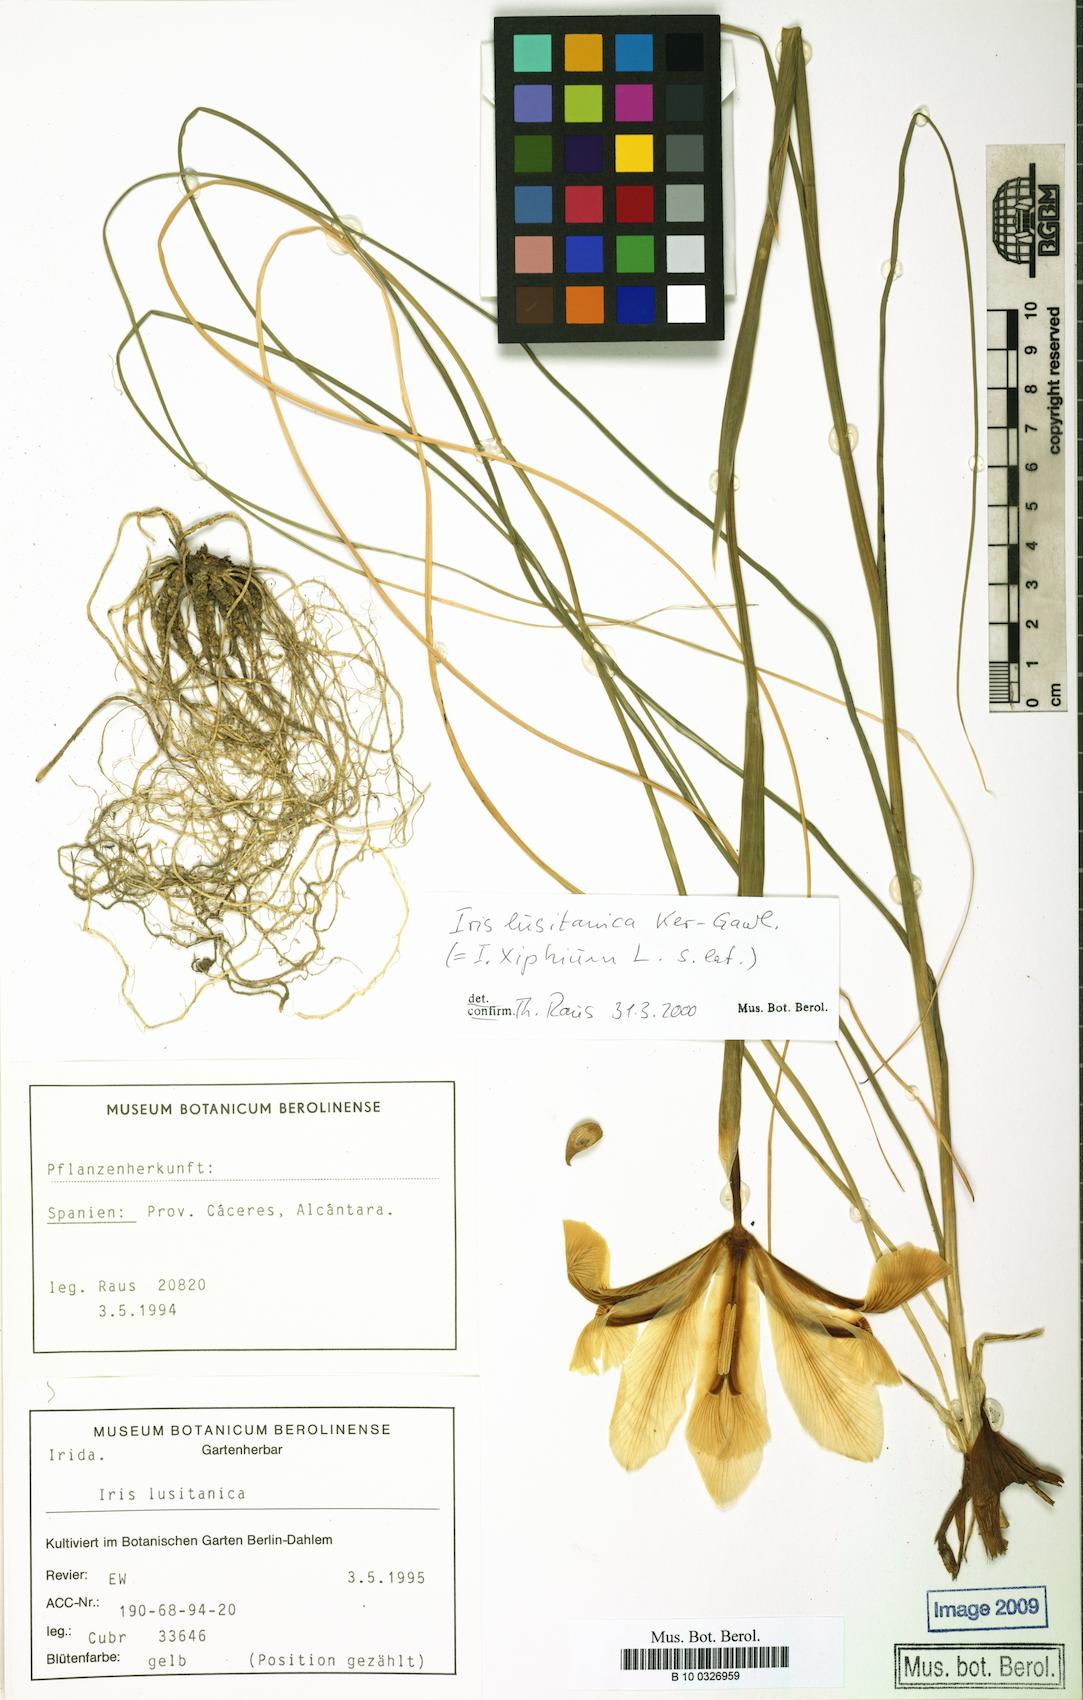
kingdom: Plantae
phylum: Tracheophyta
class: Liliopsida
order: Asparagales
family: Iridaceae
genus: Iris
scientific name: Iris xiphium
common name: Spanish iris
